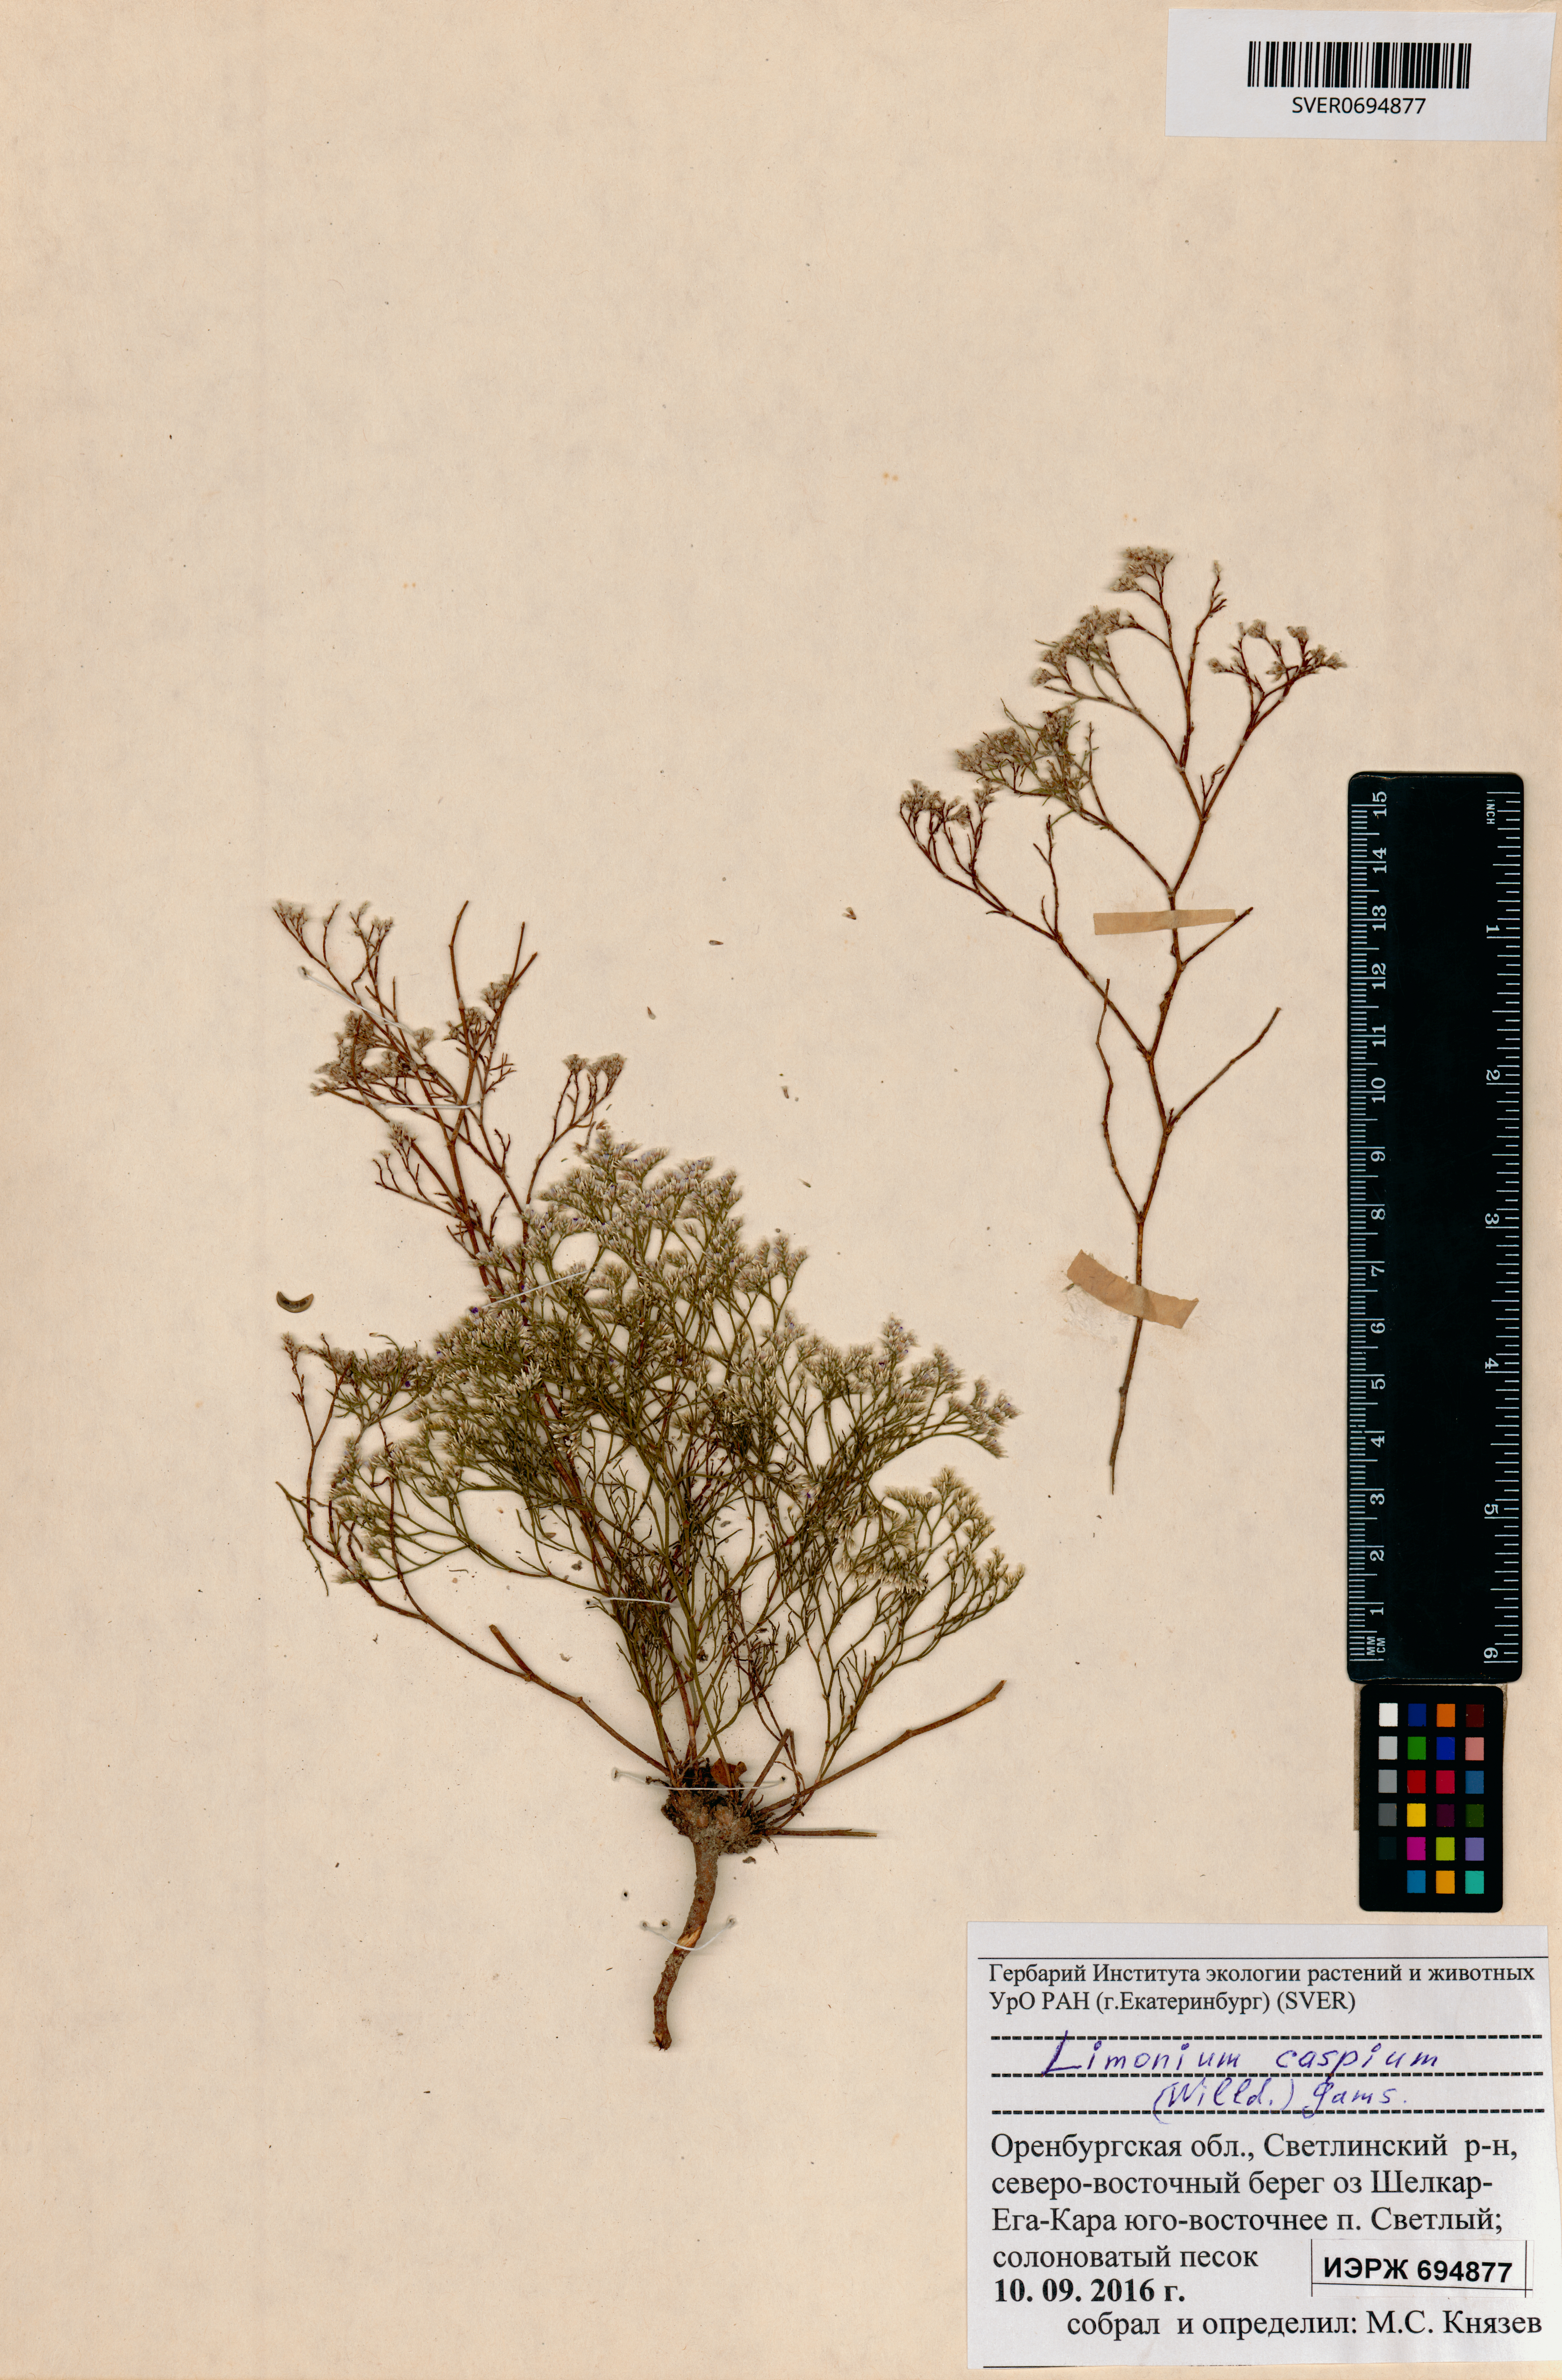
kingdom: Plantae
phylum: Tracheophyta
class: Magnoliopsida
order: Caryophyllales
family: Plumbaginaceae
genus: Limonium
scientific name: Limonium bellidifolium
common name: Matted sea-lavender
